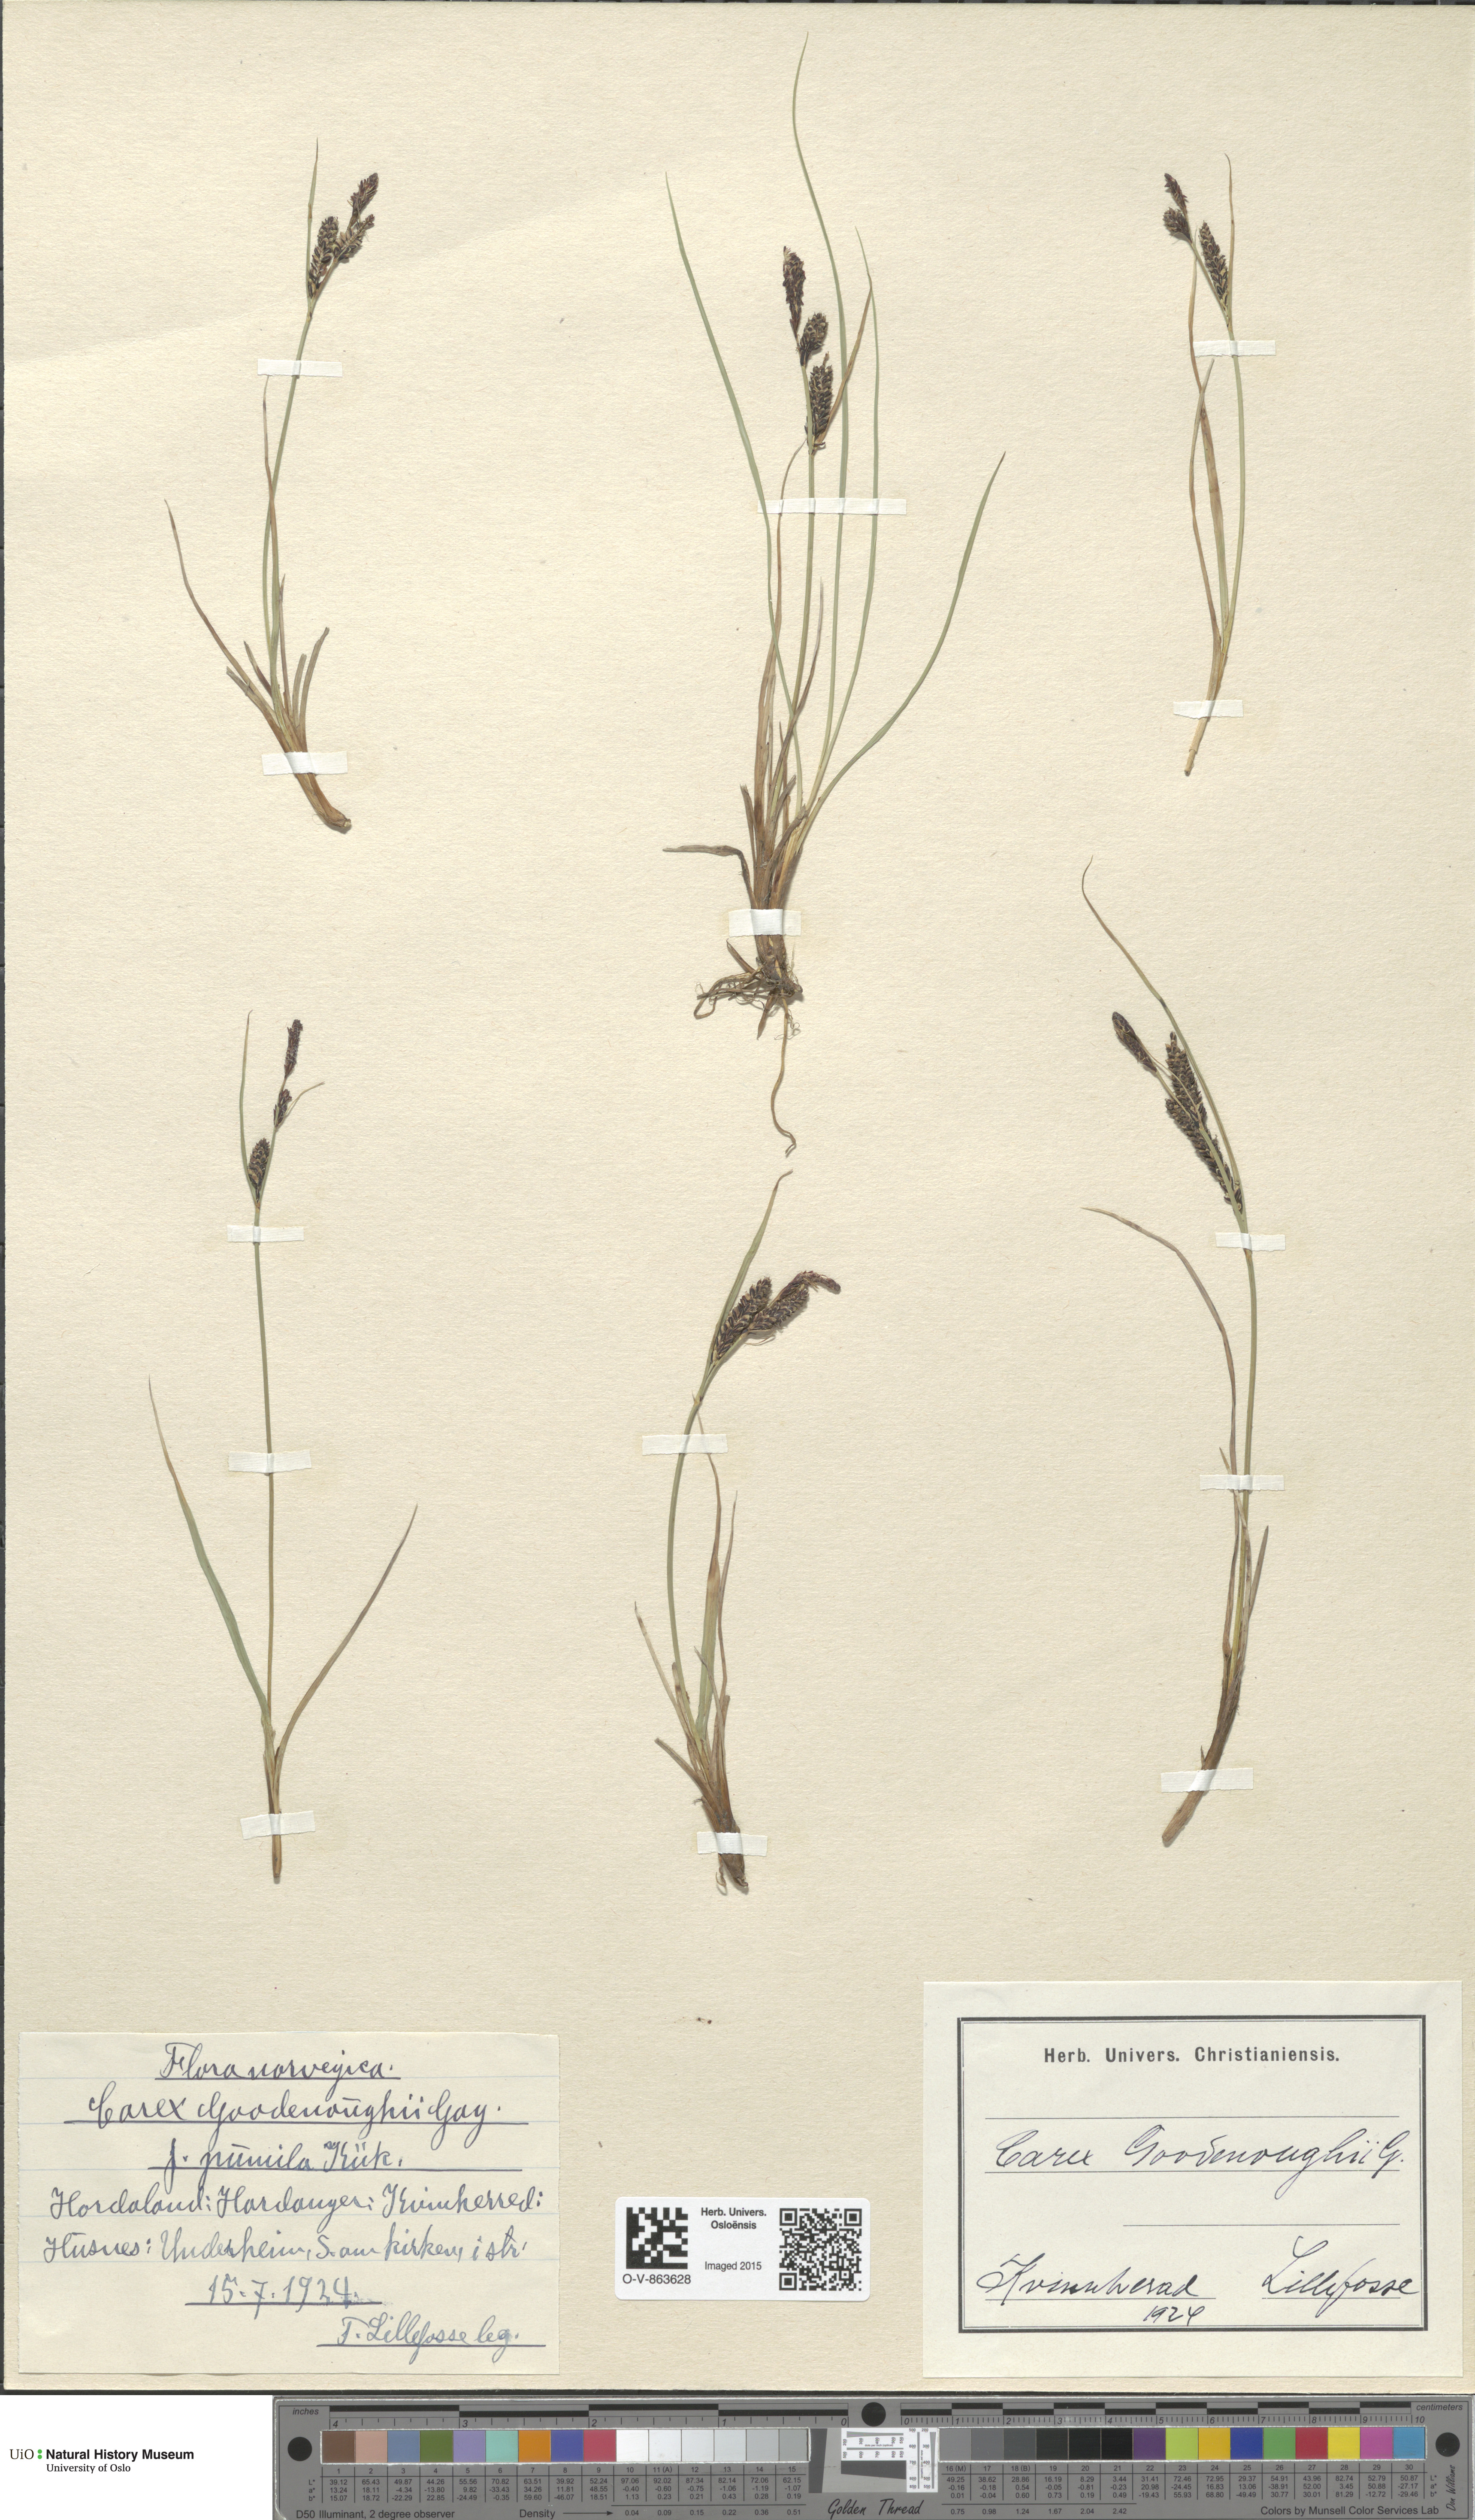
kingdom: Plantae
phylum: Tracheophyta
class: Liliopsida
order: Poales
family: Cyperaceae
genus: Carex
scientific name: Carex nigra
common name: Common sedge
